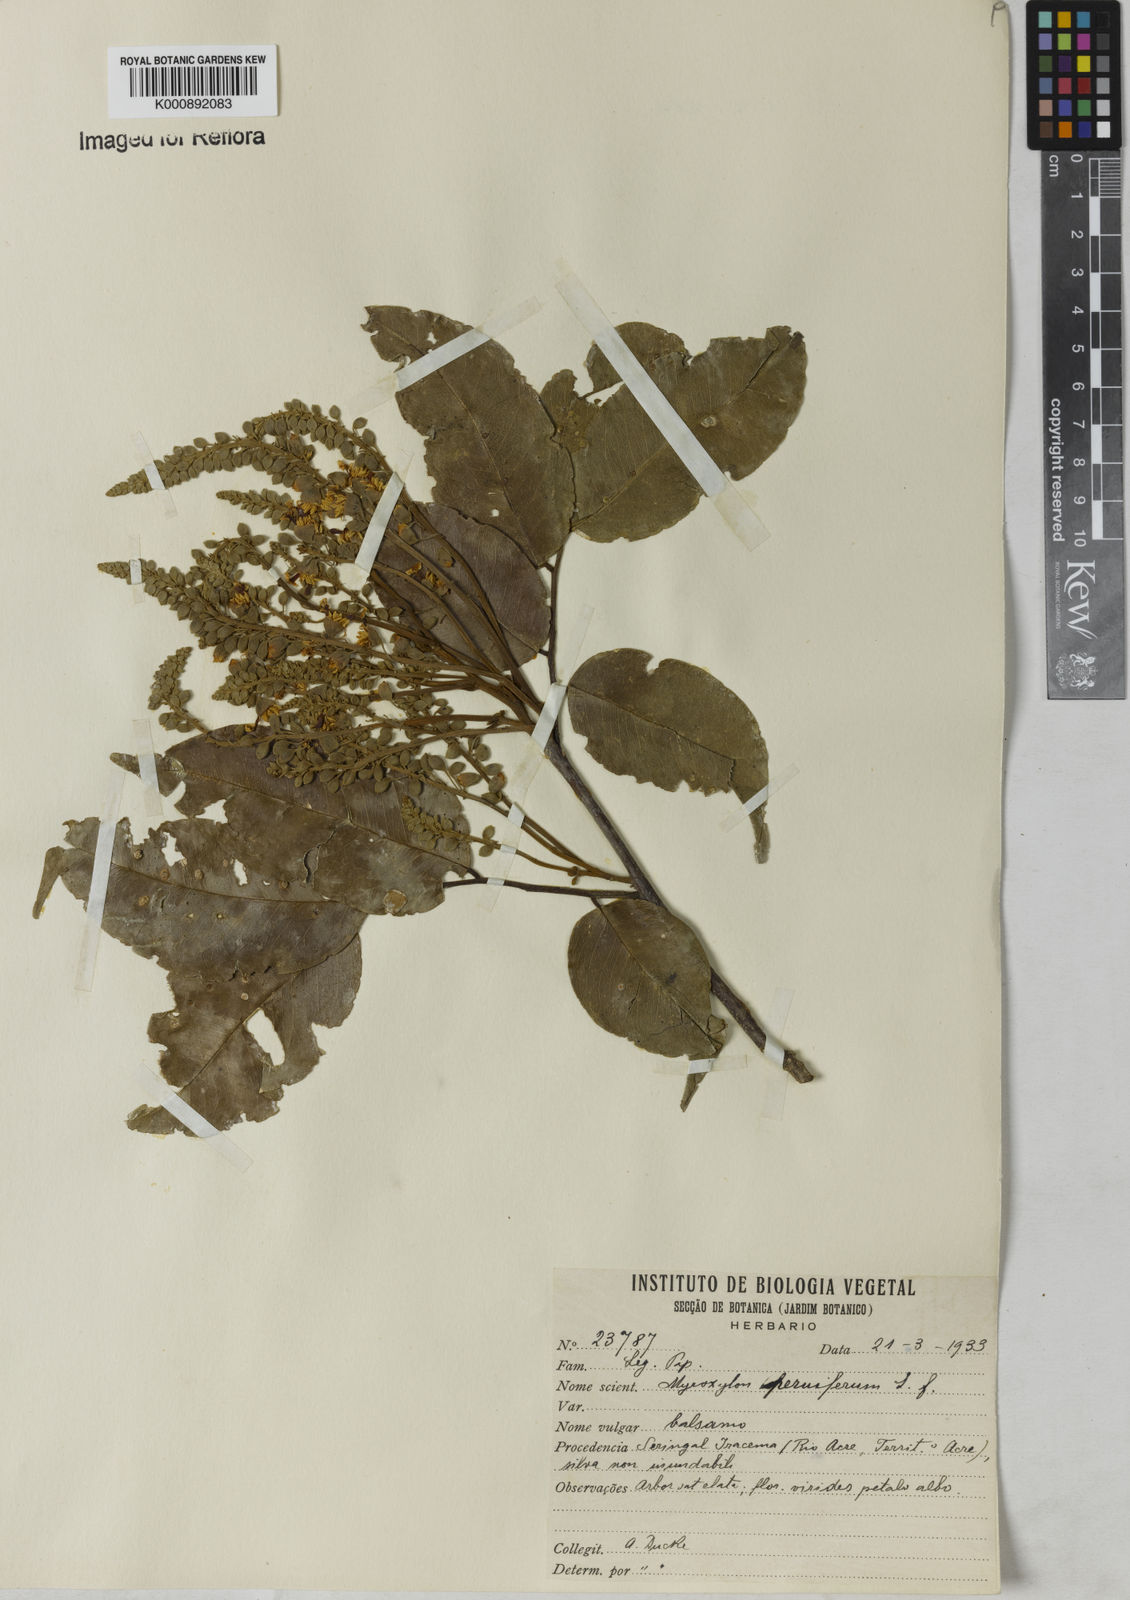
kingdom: Plantae
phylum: Tracheophyta
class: Magnoliopsida
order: Fabales
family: Fabaceae
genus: Myroxylon
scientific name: Myroxylon balsamum
